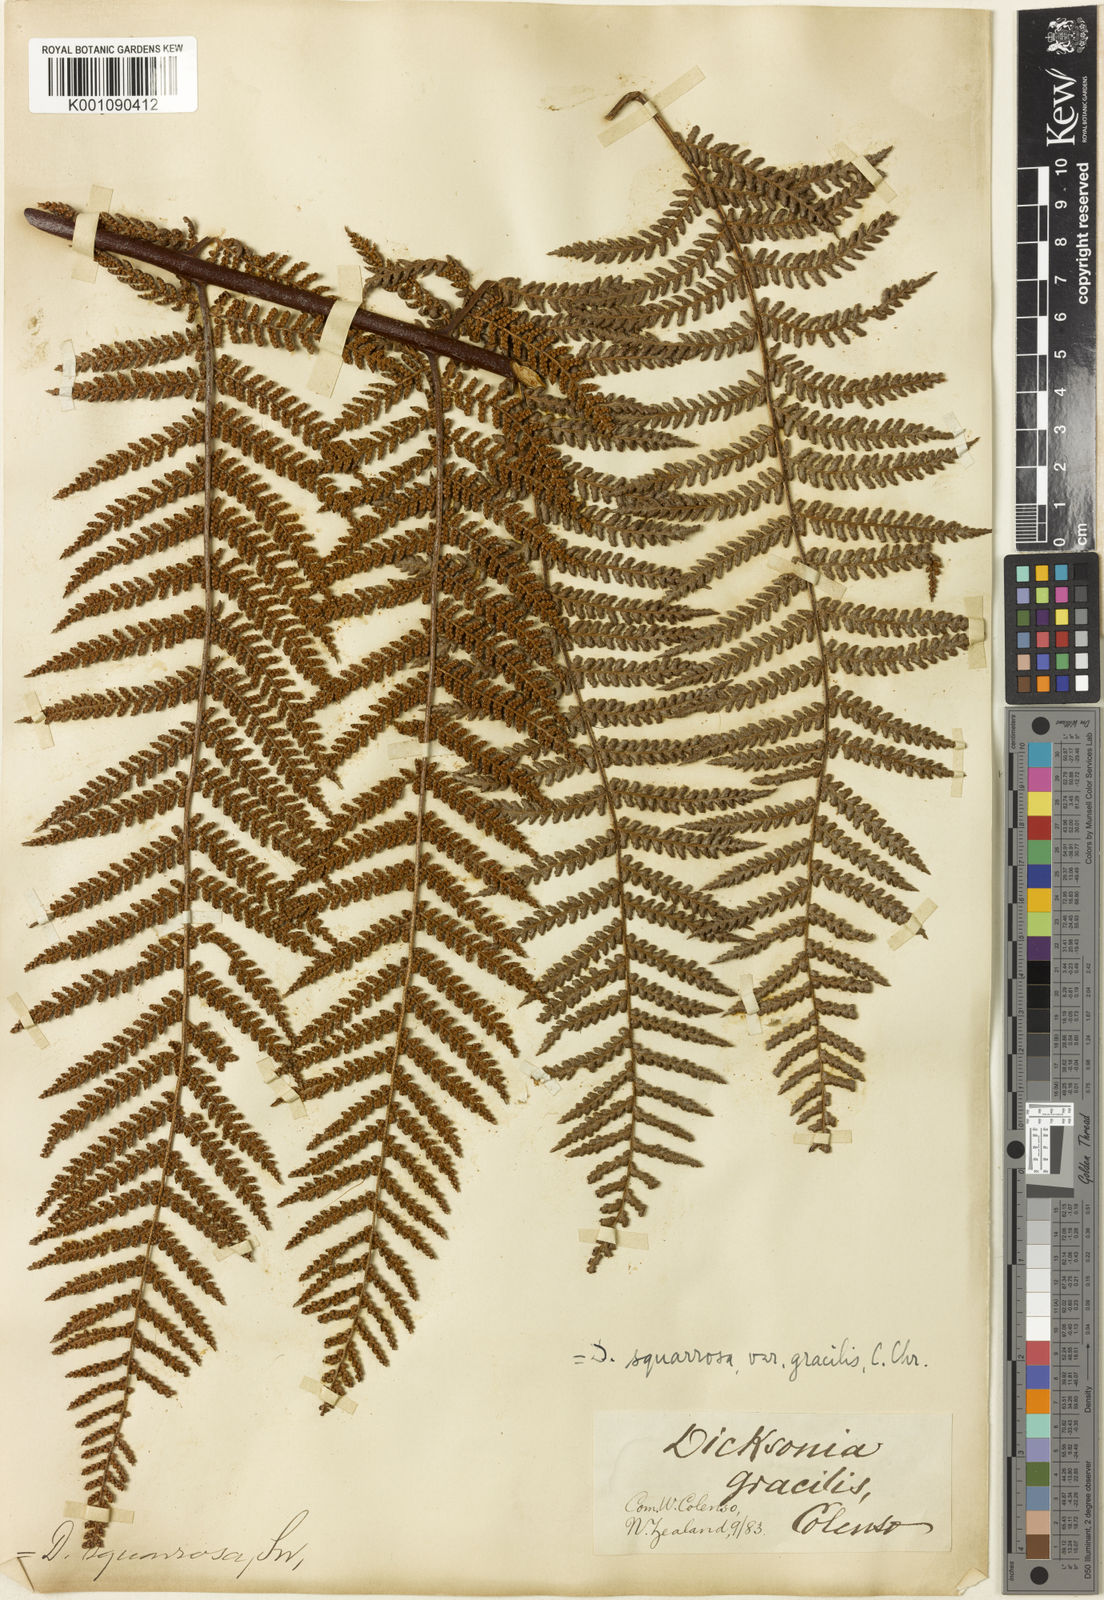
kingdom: Plantae
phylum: Tracheophyta
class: Polypodiopsida
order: Cyatheales
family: Dicksoniaceae
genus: Dicksonia
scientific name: Dicksonia squarrosa
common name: Hard treefern
